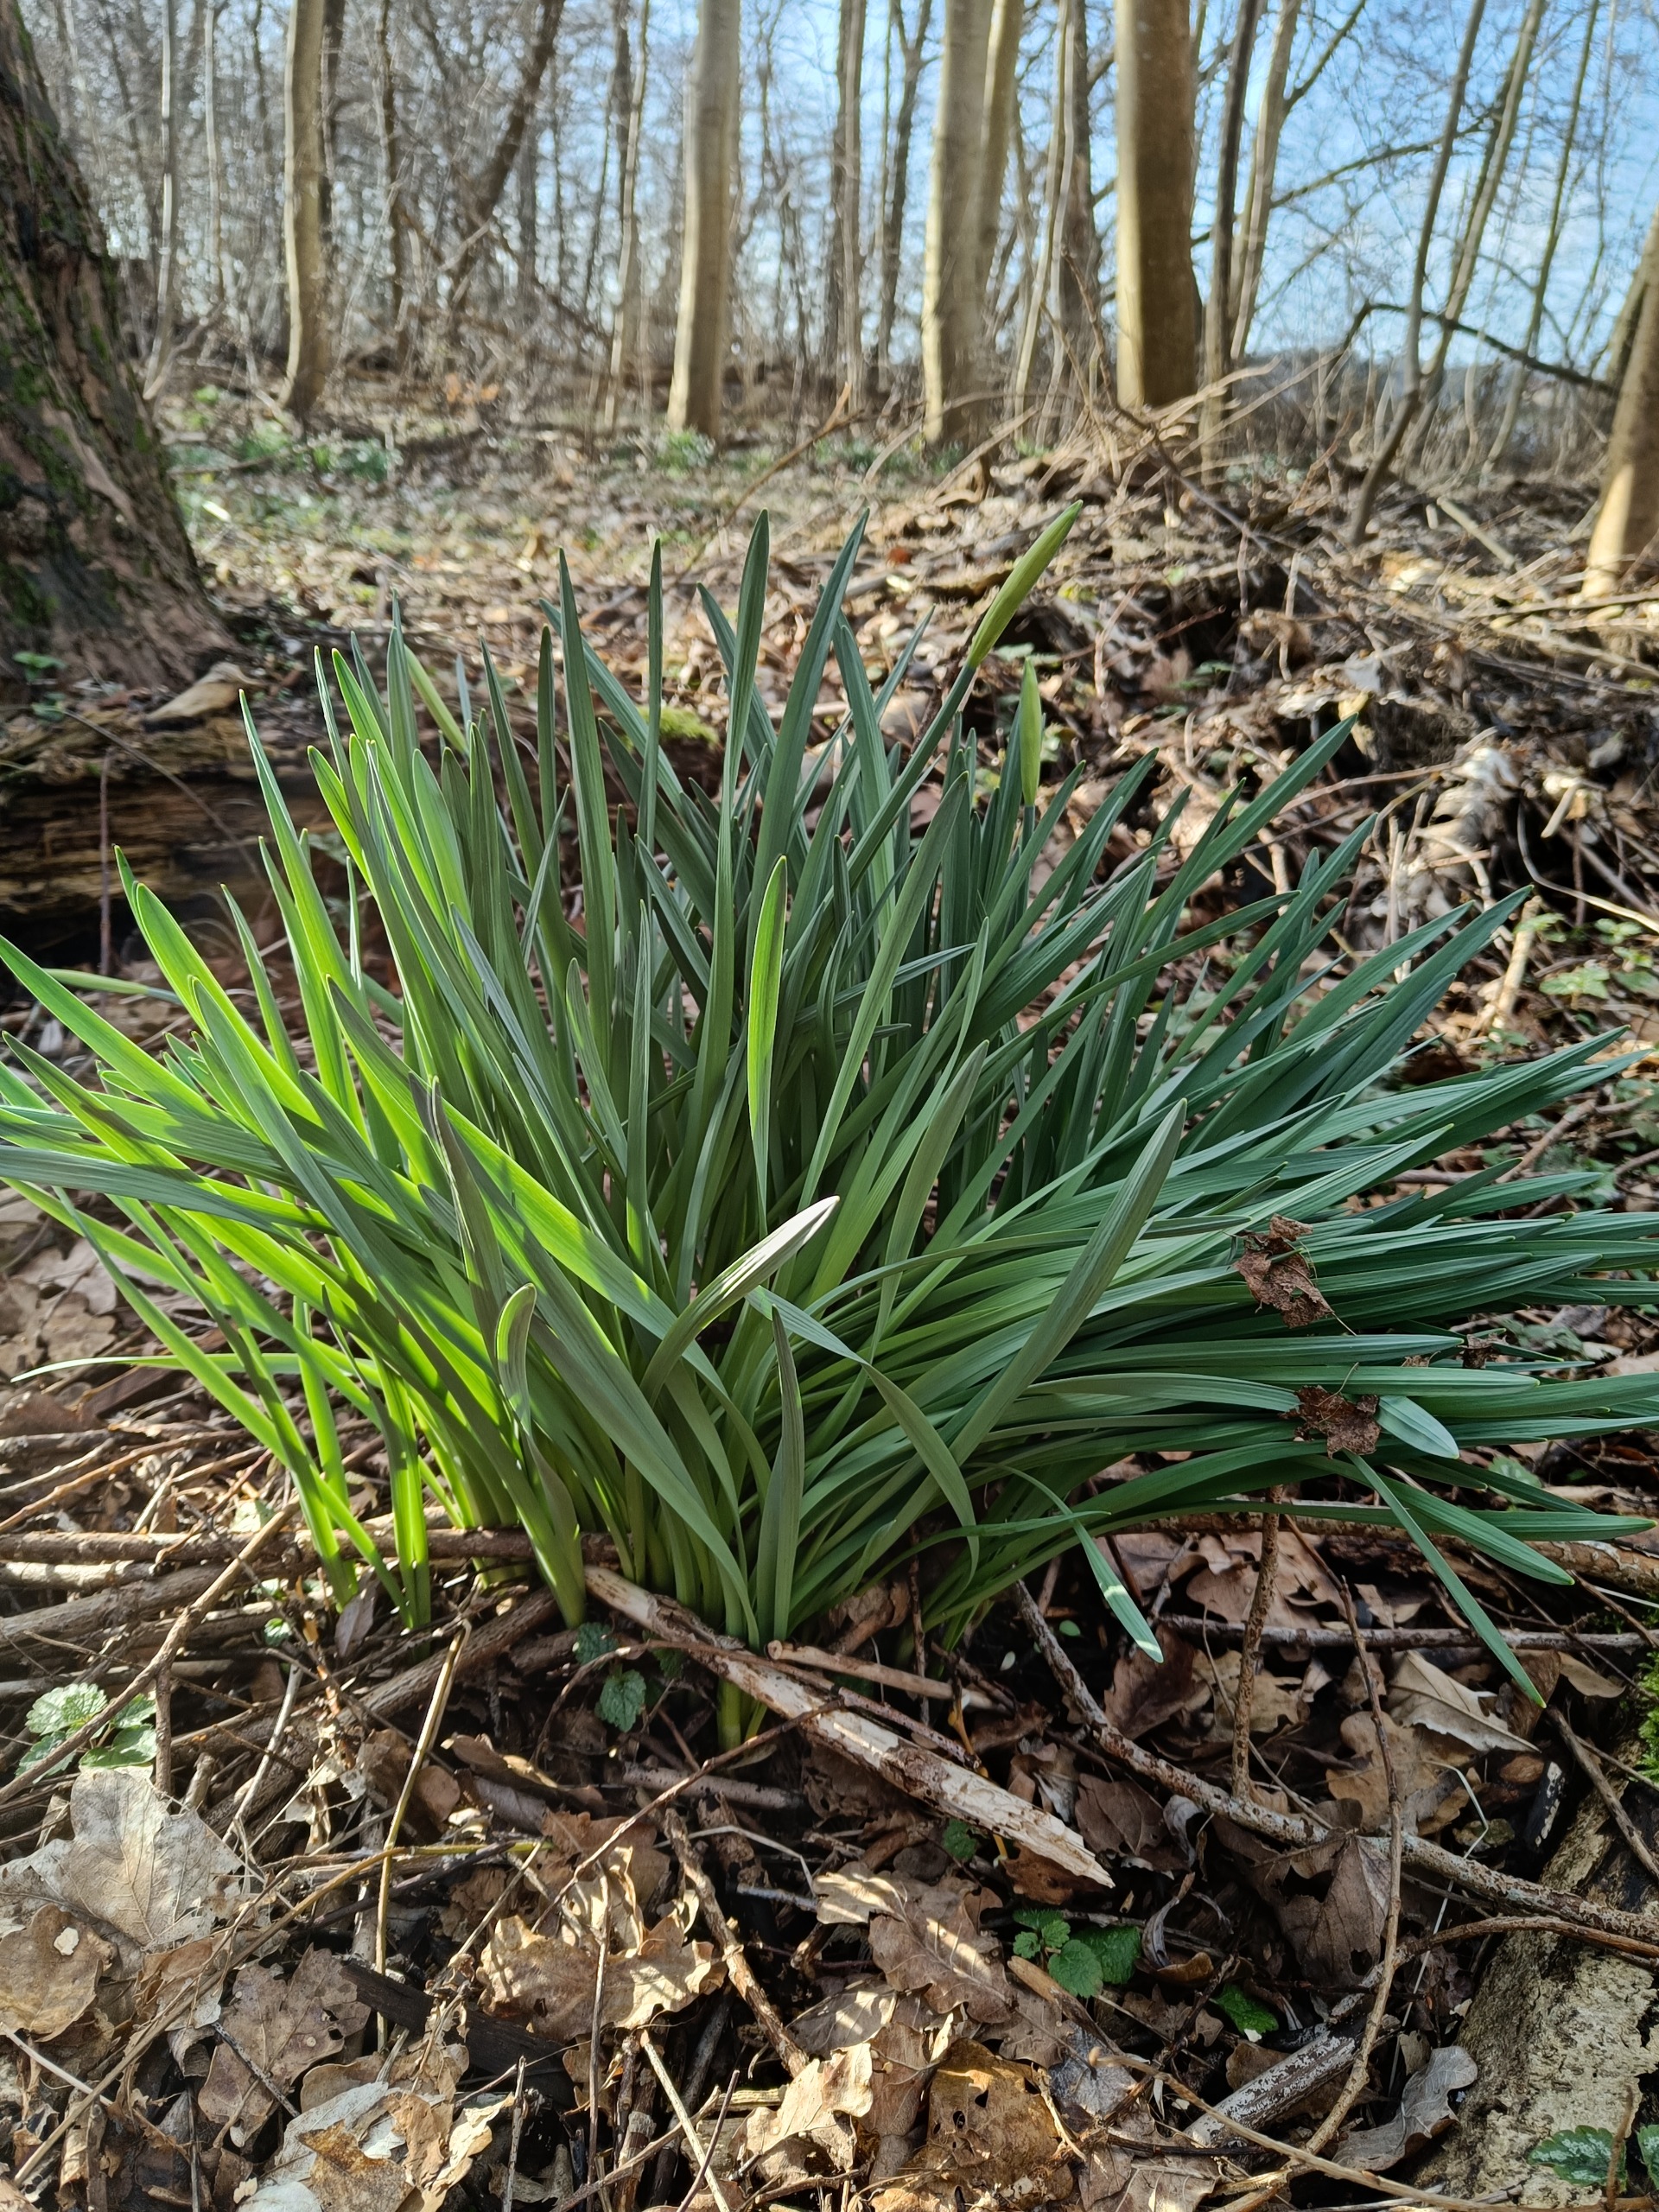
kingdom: Plantae
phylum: Tracheophyta
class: Liliopsida
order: Asparagales
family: Amaryllidaceae
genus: Narcissus
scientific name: Narcissus pseudonarcissus
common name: Påskelilje
